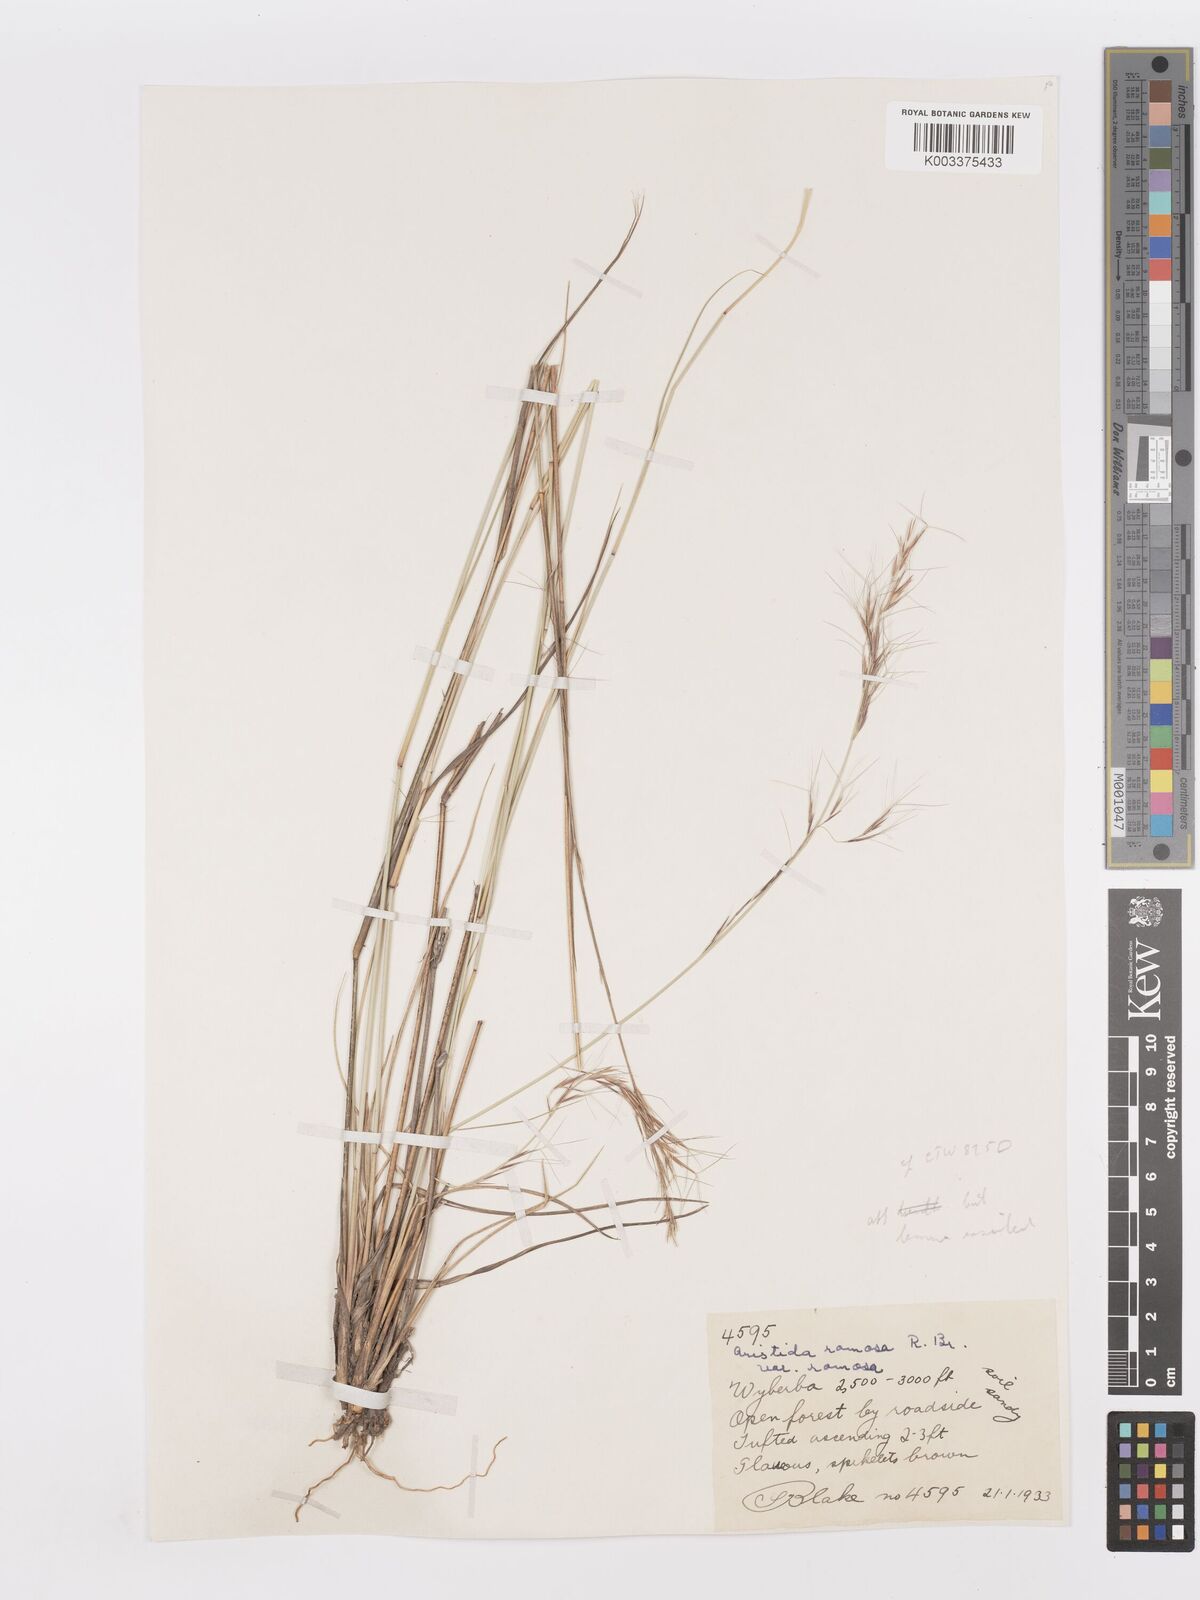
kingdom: Plantae
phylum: Tracheophyta
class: Liliopsida
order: Poales
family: Poaceae
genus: Aristida
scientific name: Aristida ramosa
